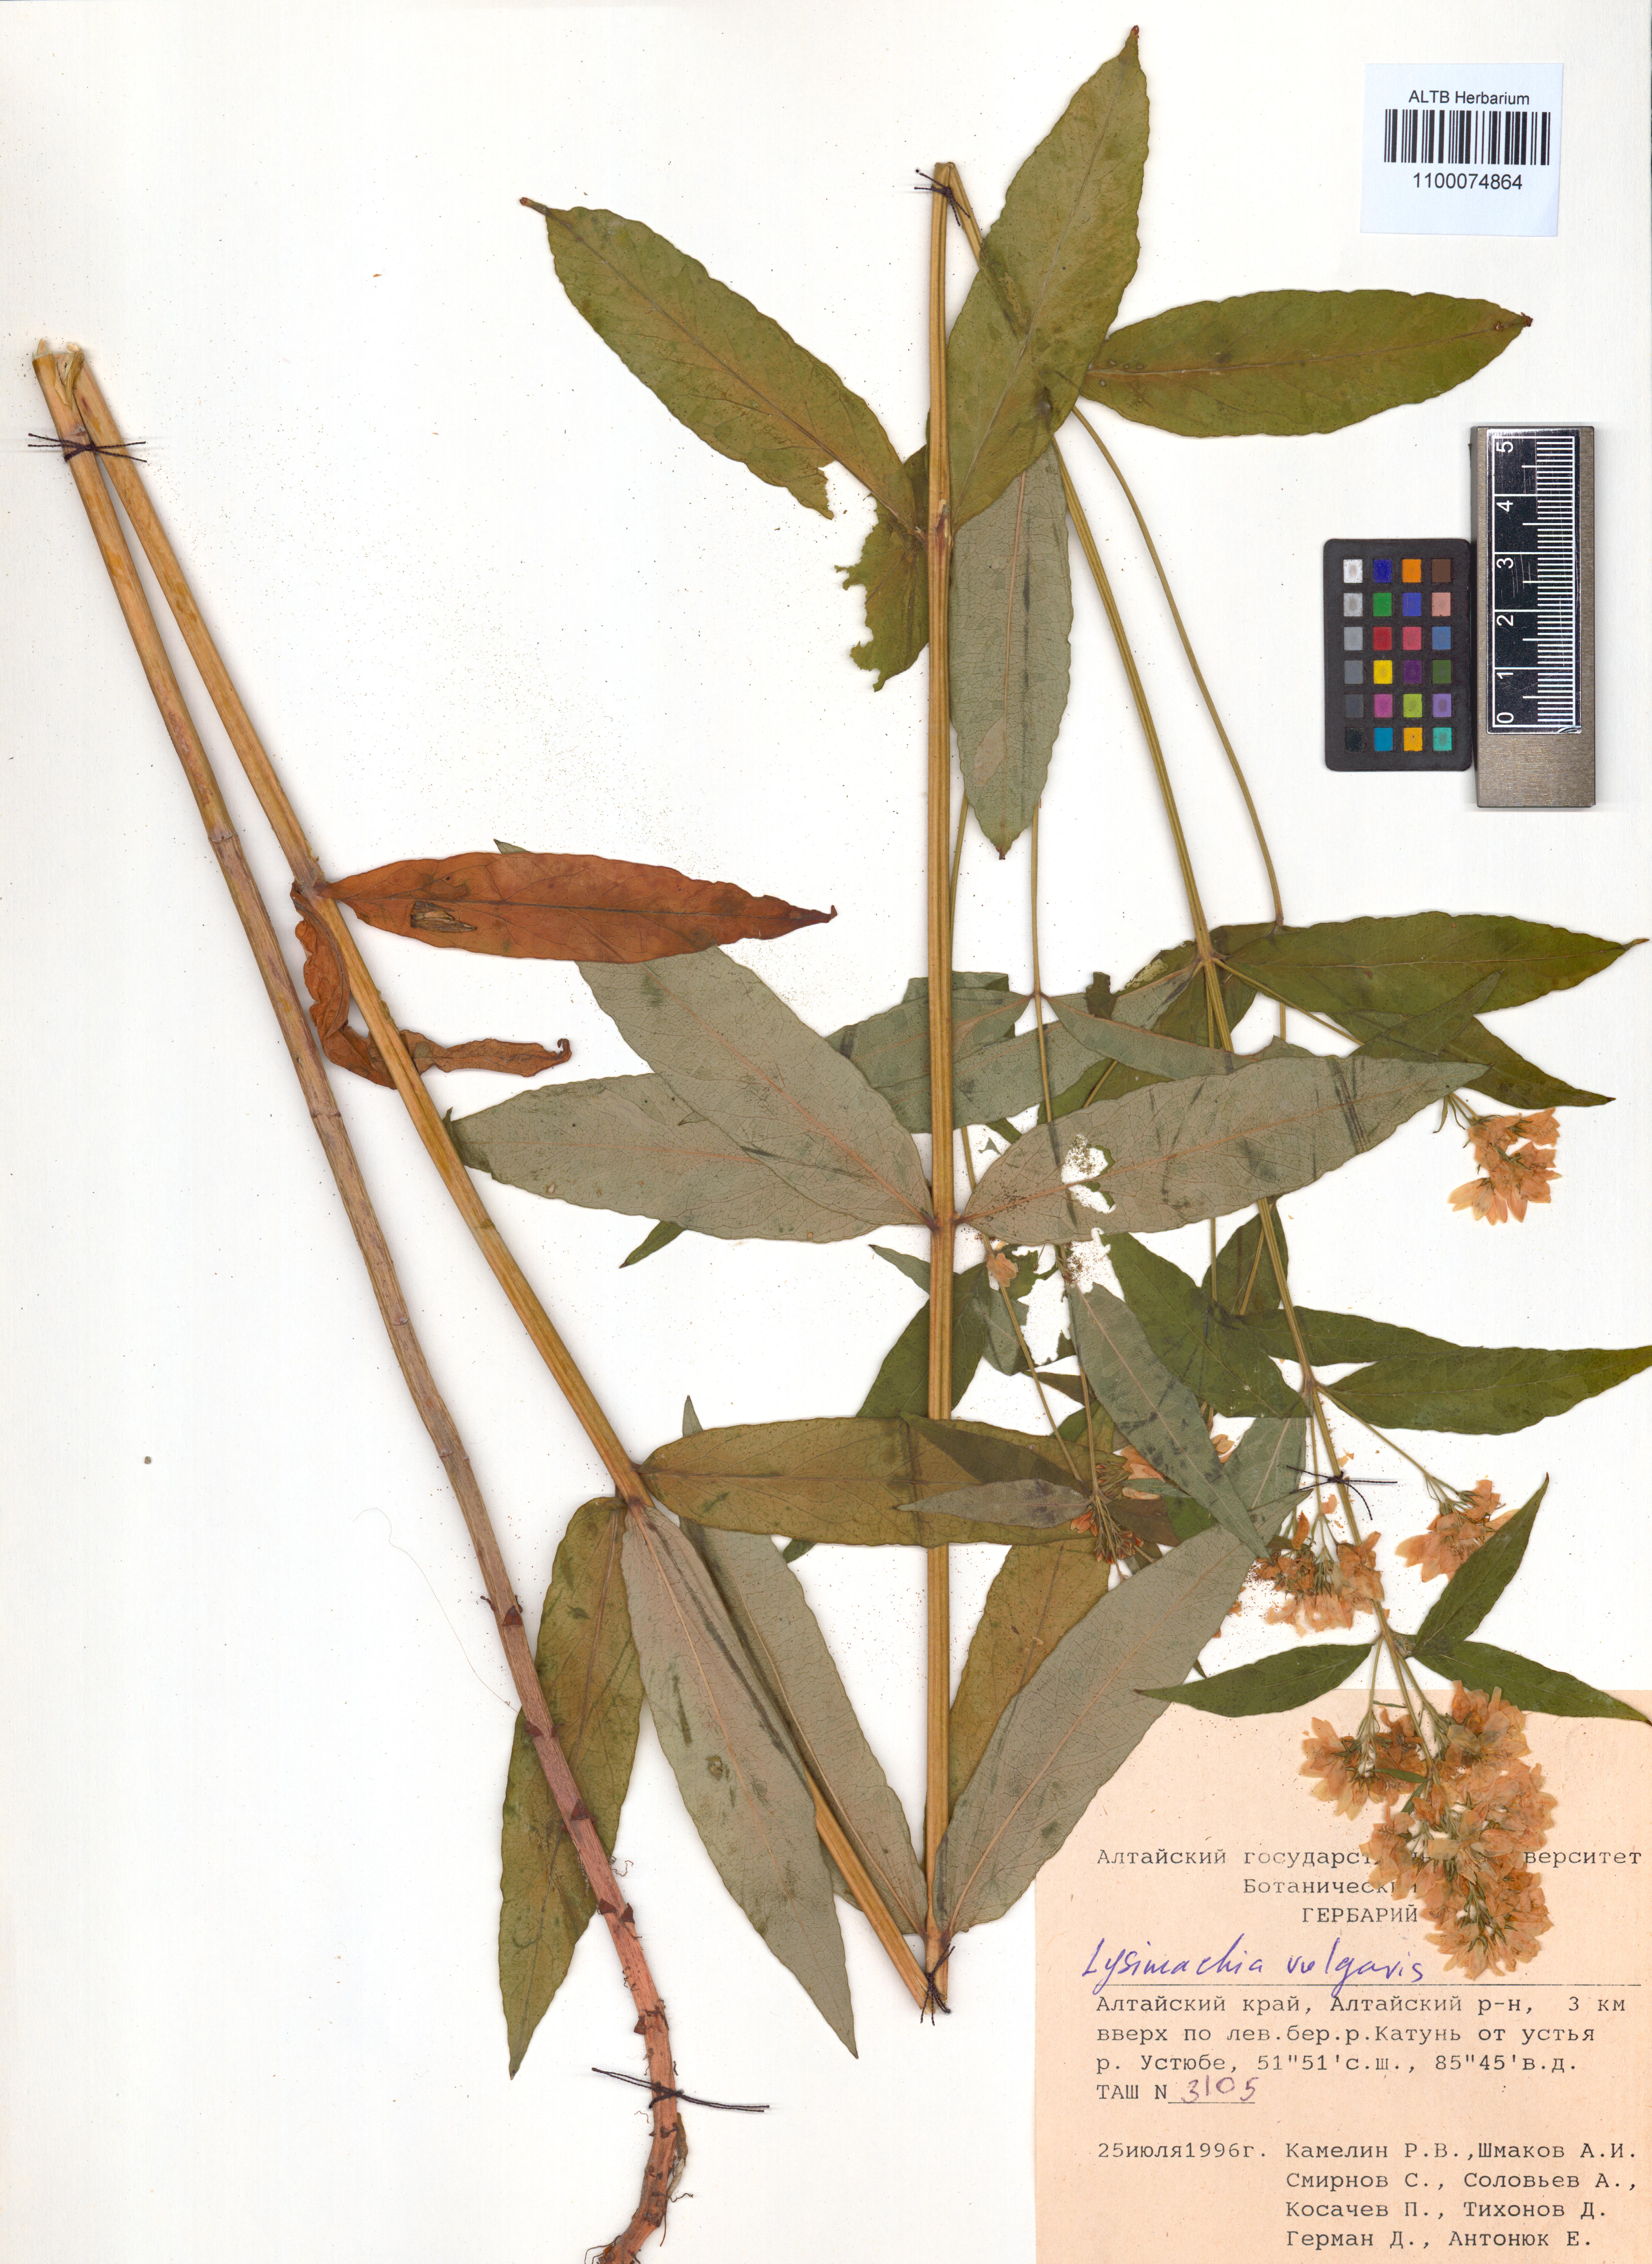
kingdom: Plantae
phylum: Tracheophyta
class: Magnoliopsida
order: Ericales
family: Primulaceae
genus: Lysimachia
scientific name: Lysimachia vulgaris
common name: Yellow loosestrife
